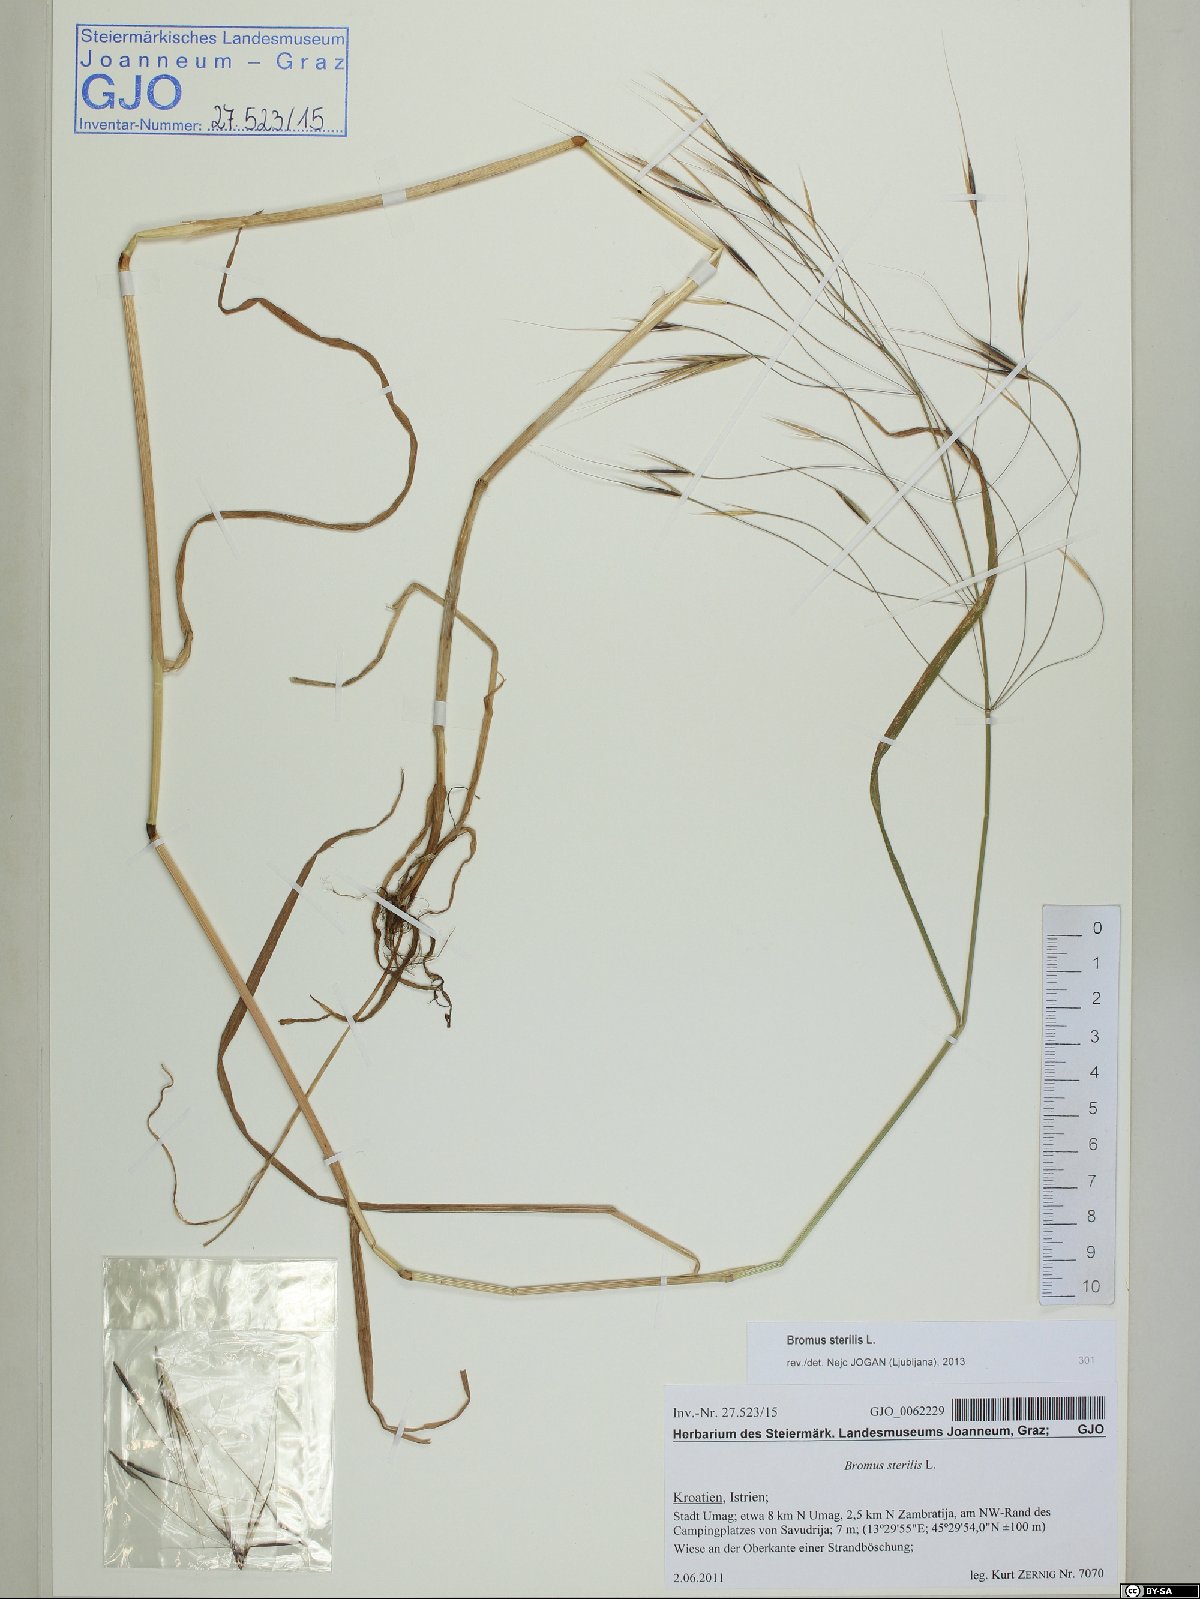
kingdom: Plantae
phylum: Tracheophyta
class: Liliopsida
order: Poales
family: Poaceae
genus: Bromus
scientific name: Bromus sterilis
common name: Poverty brome
